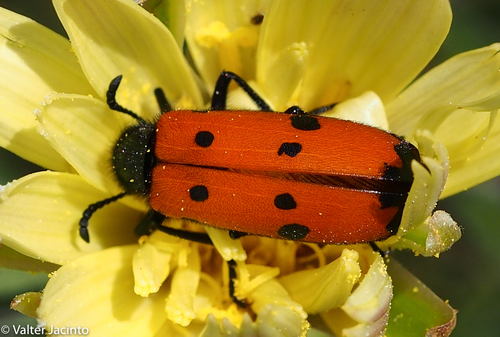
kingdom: Animalia
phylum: Arthropoda
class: Insecta
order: Coleoptera
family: Meloidae
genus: Mylabris
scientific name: Mylabris quadripunctata
